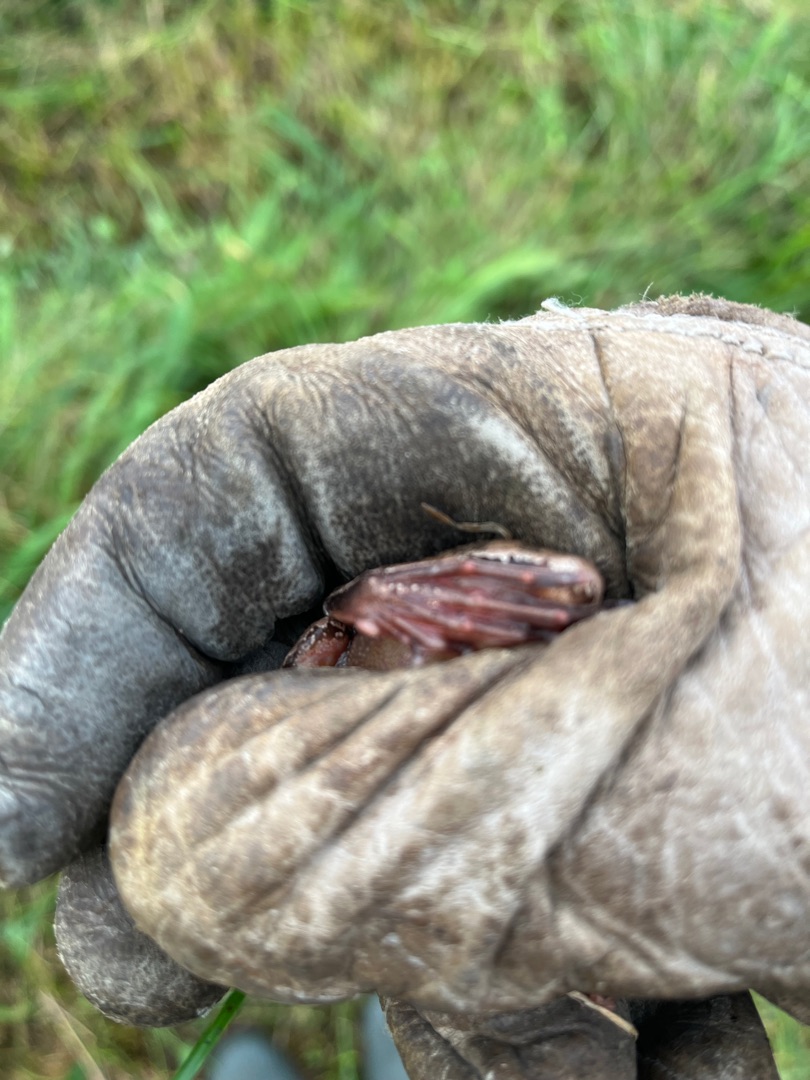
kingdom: Animalia
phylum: Chordata
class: Amphibia
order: Anura
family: Ranidae
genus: Rana
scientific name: Rana dalmatina
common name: Springfrø
